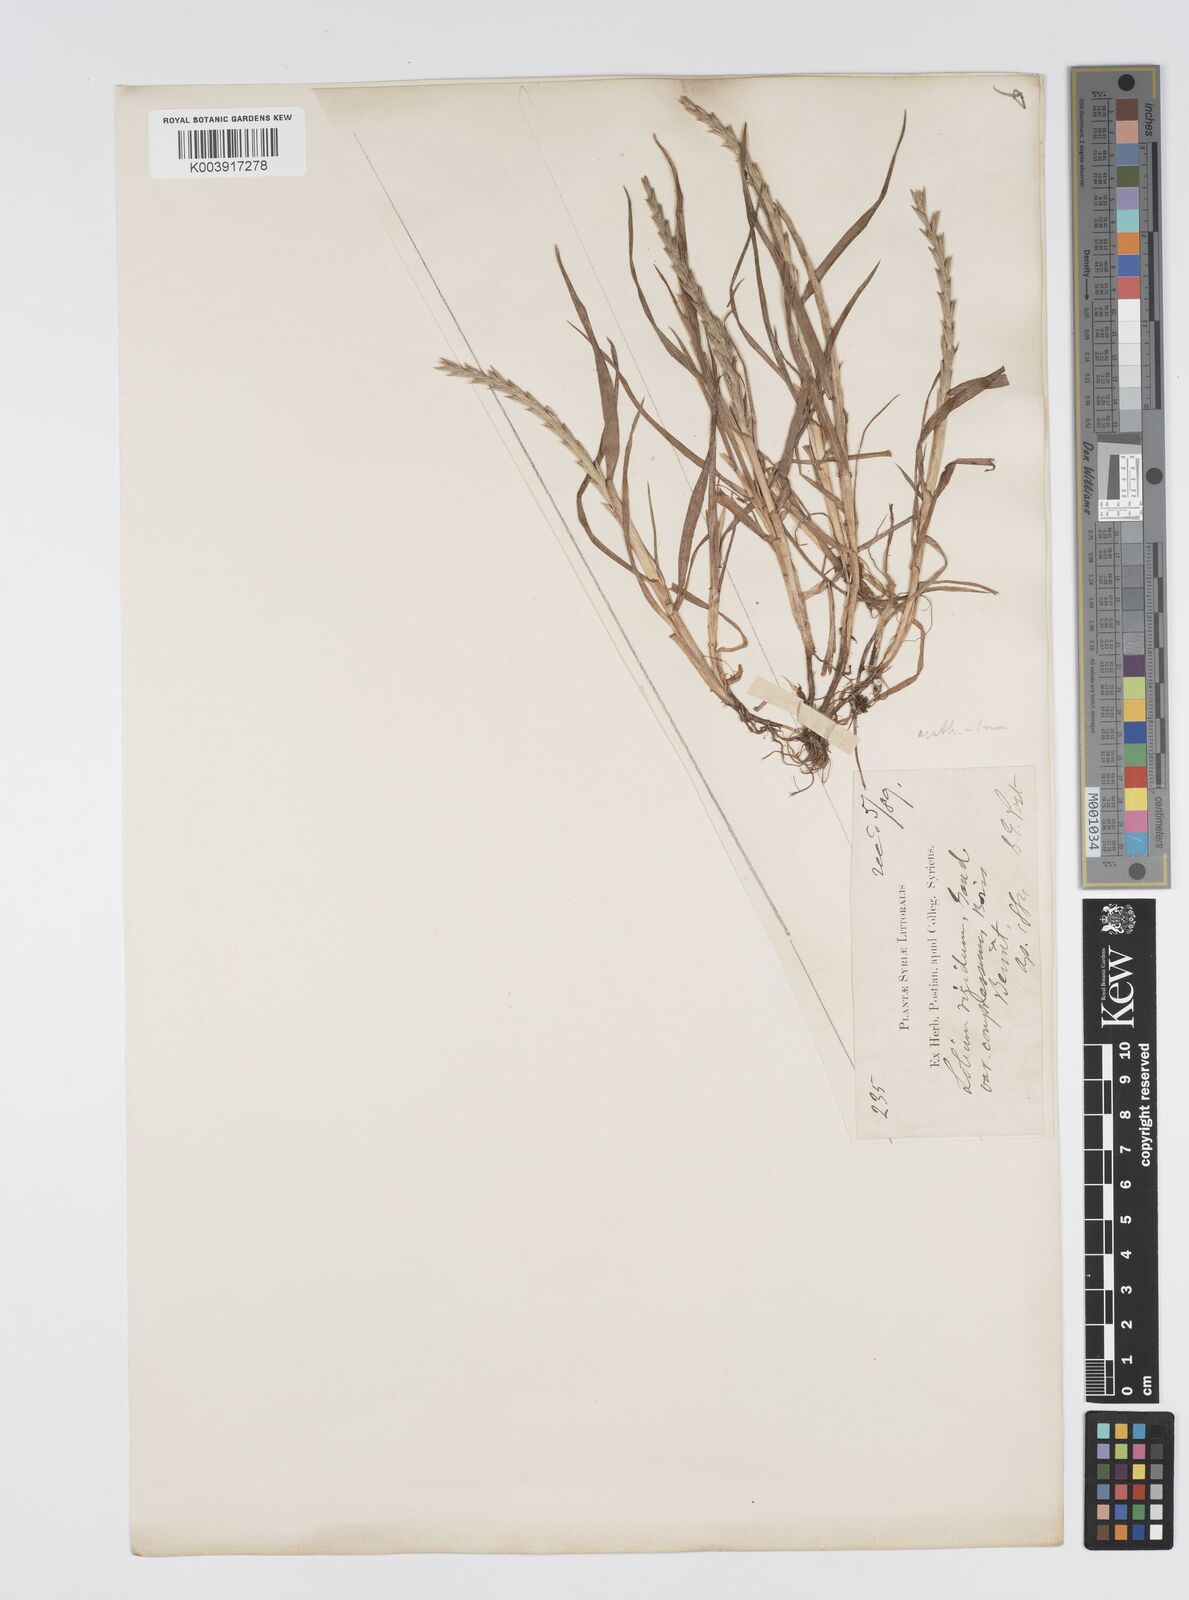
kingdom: Plantae
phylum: Tracheophyta
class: Liliopsida
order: Poales
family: Poaceae
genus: Lolium
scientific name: Lolium rigidum
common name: Wimmera ryegrass
